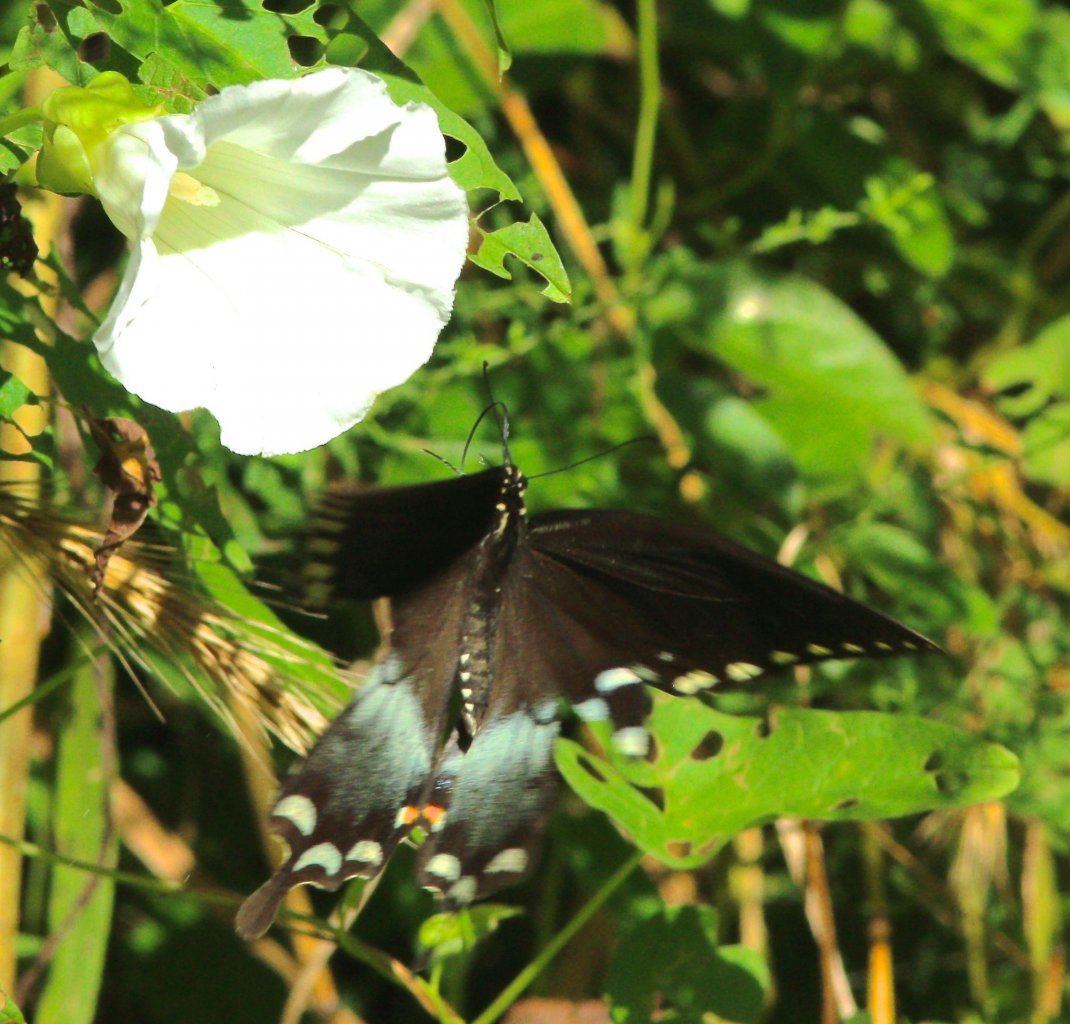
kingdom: Animalia
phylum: Arthropoda
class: Insecta
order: Lepidoptera
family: Papilionidae
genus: Pterourus
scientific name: Pterourus troilus
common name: Spicebush Swallowtail
